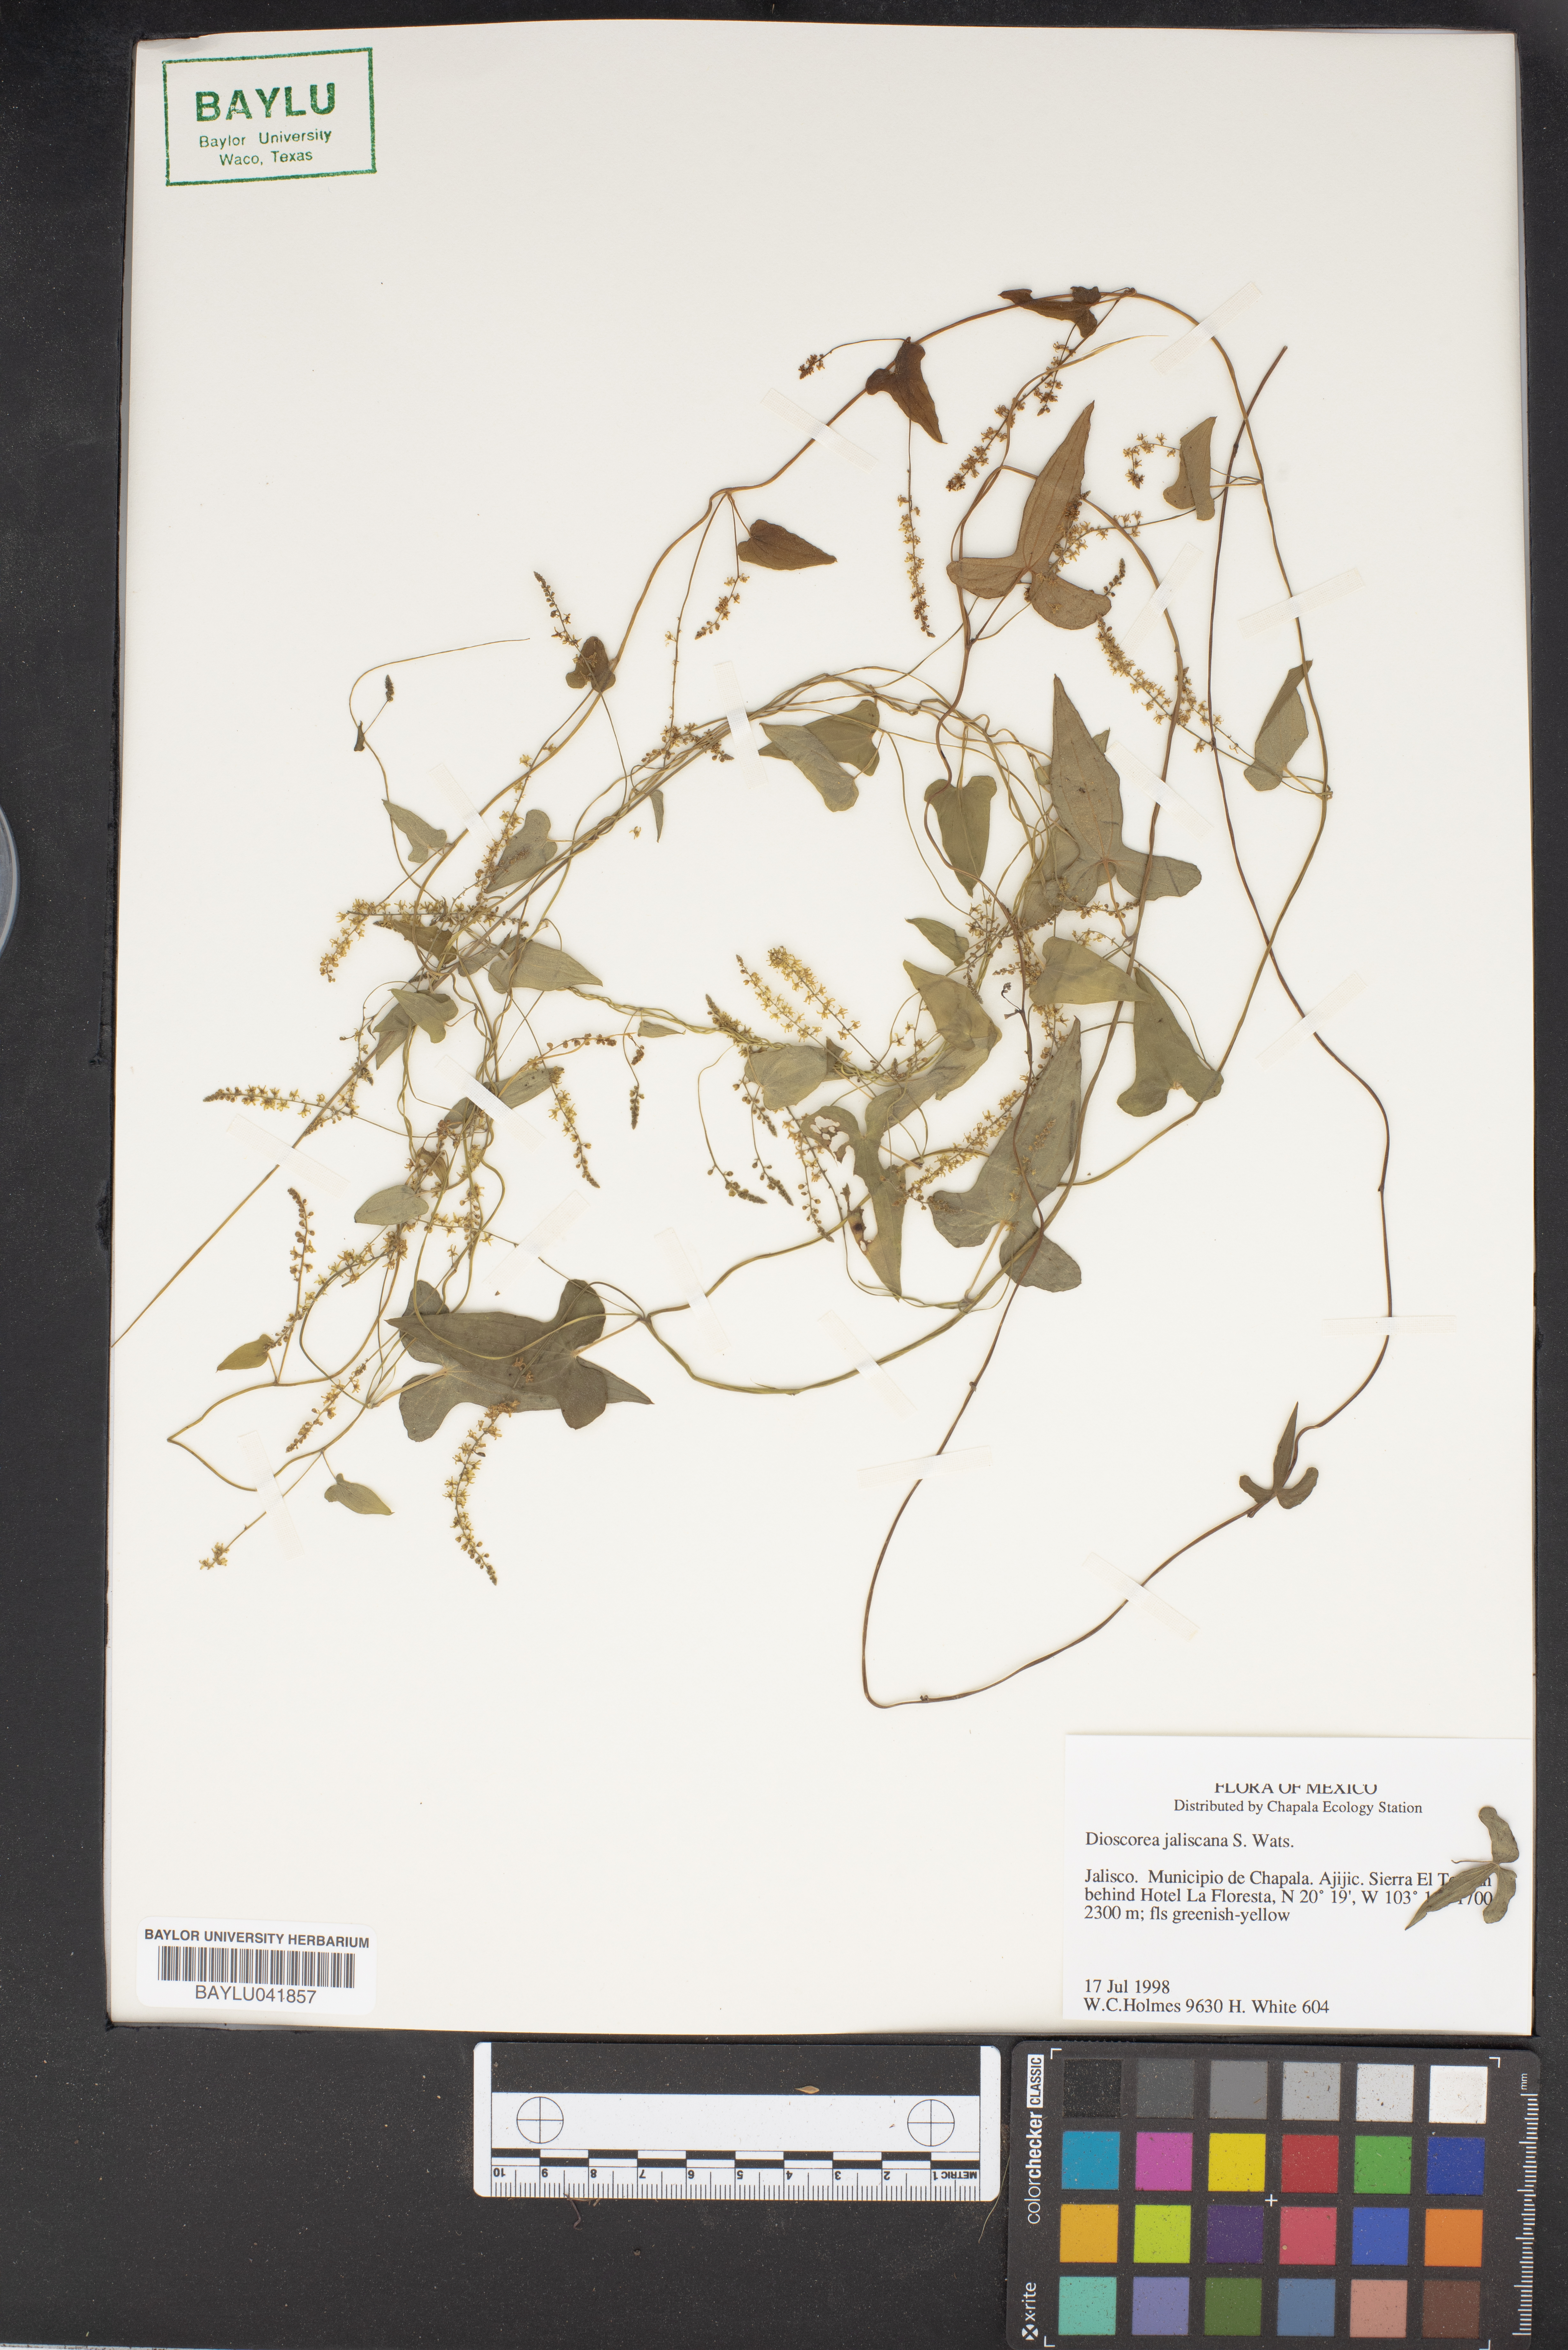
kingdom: Plantae
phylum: Tracheophyta
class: Liliopsida
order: Dioscoreales
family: Dioscoreaceae
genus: Dioscorea
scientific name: Dioscorea jaliscana
